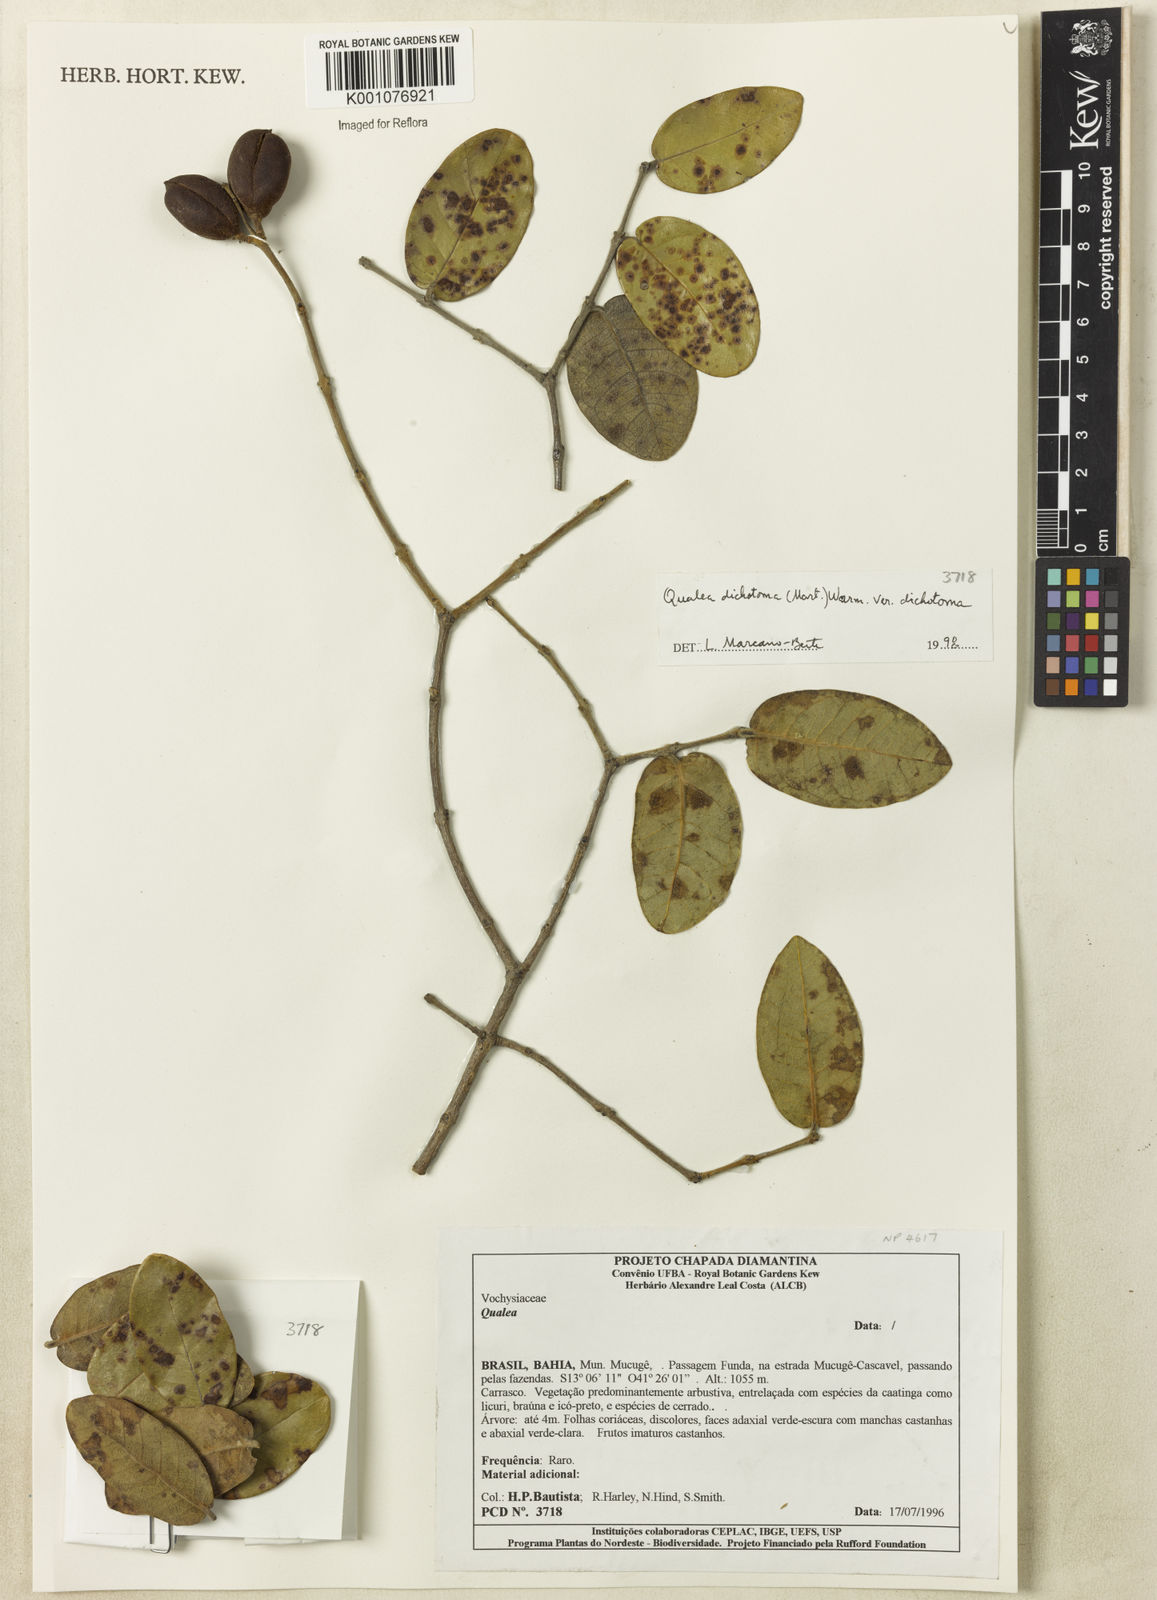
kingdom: Plantae
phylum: Tracheophyta
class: Magnoliopsida
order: Myrtales
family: Vochysiaceae
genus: Qualea
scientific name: Qualea
